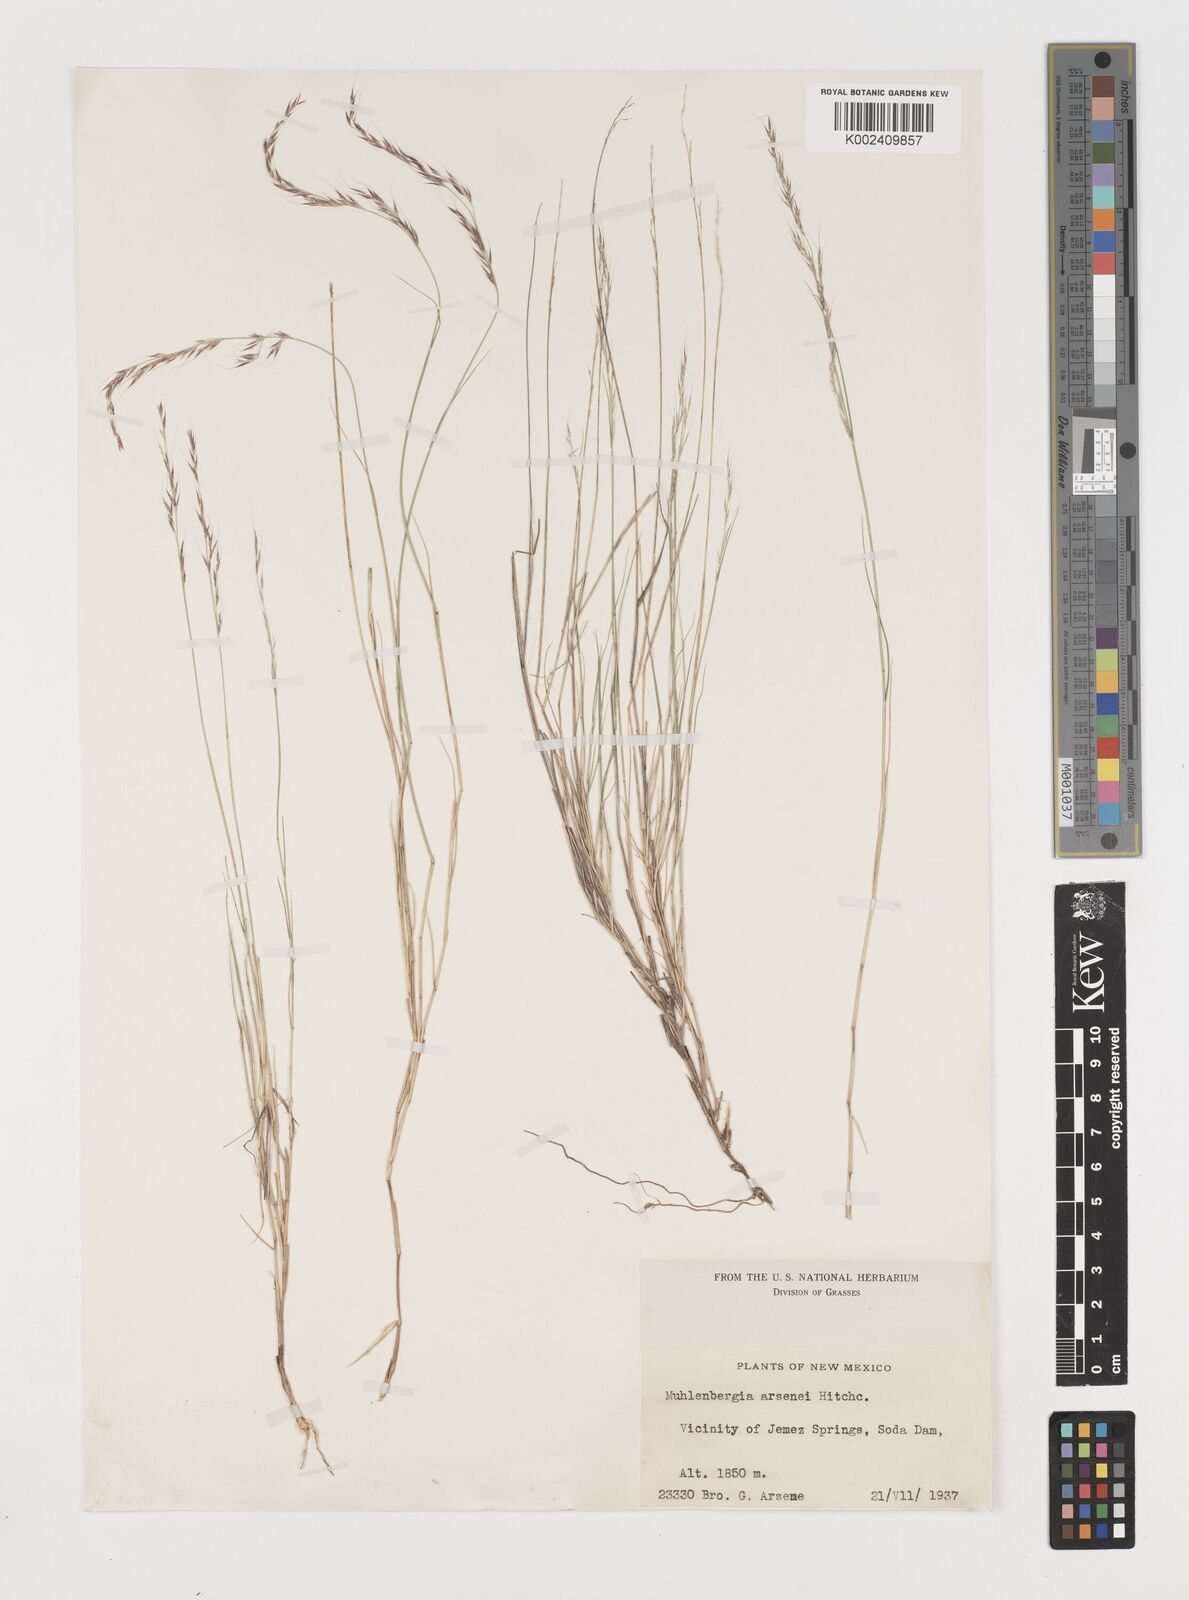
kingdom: Plantae
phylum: Tracheophyta
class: Liliopsida
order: Poales
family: Poaceae
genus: Muhlenbergia
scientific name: Muhlenbergia arsenei
